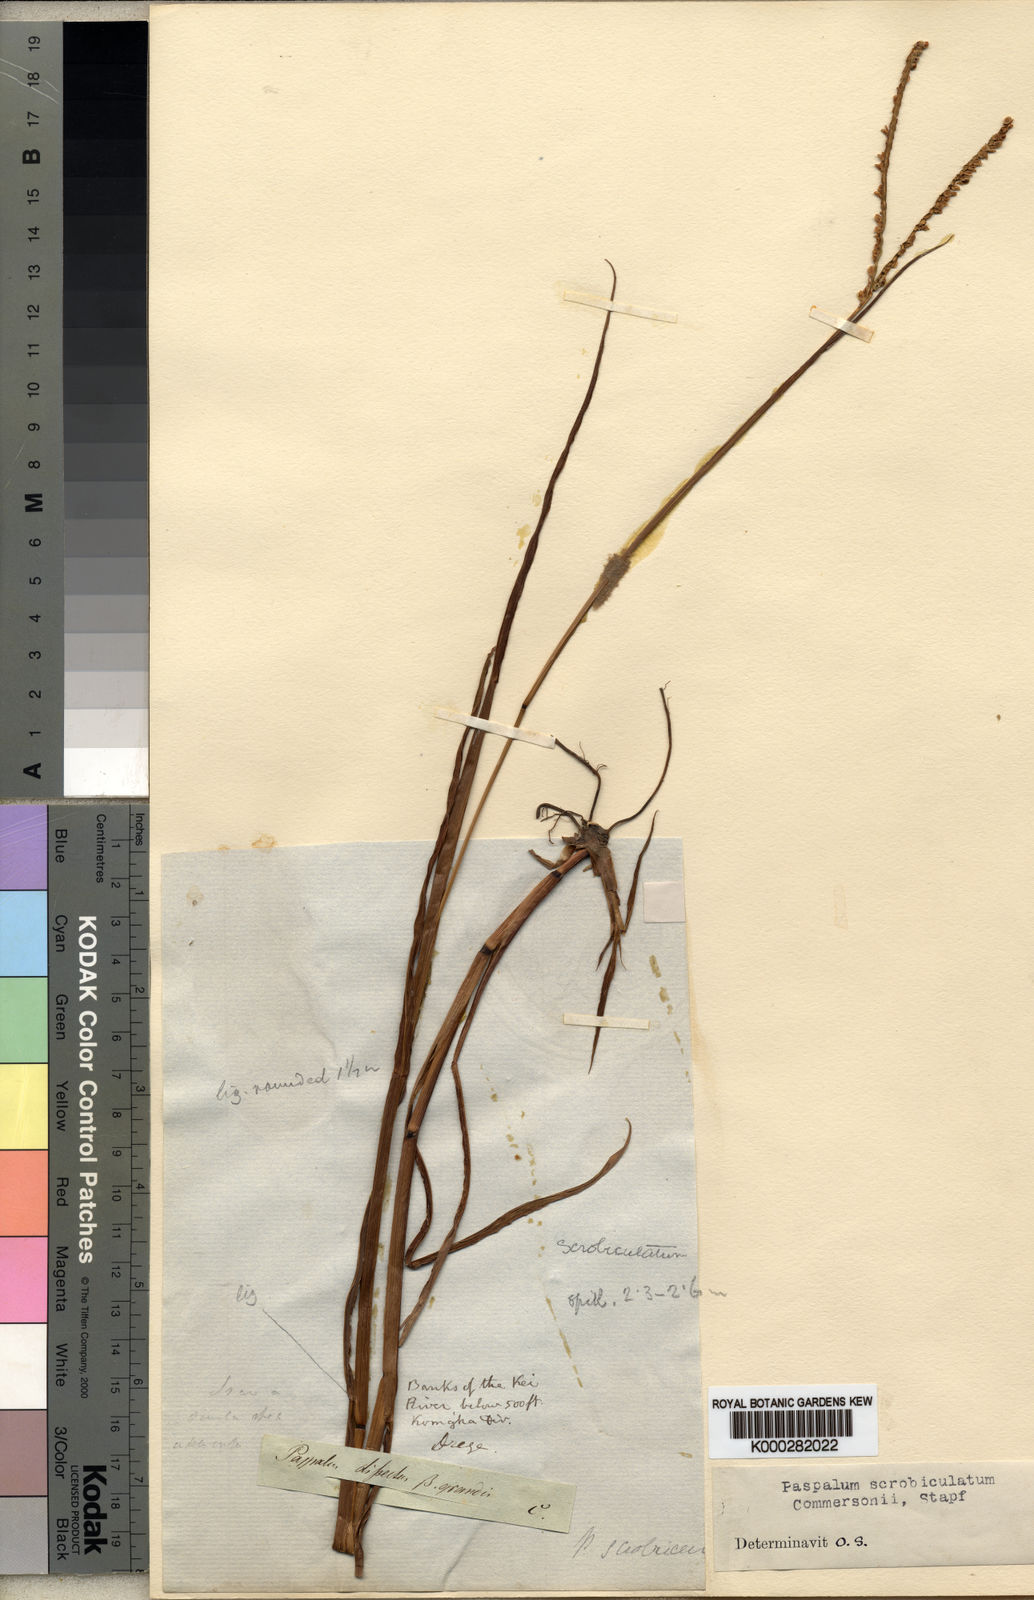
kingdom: Plantae
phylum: Tracheophyta
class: Liliopsida
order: Poales
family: Poaceae
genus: Paspalum
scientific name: Paspalum scrobiculatum
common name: Kodo millet
